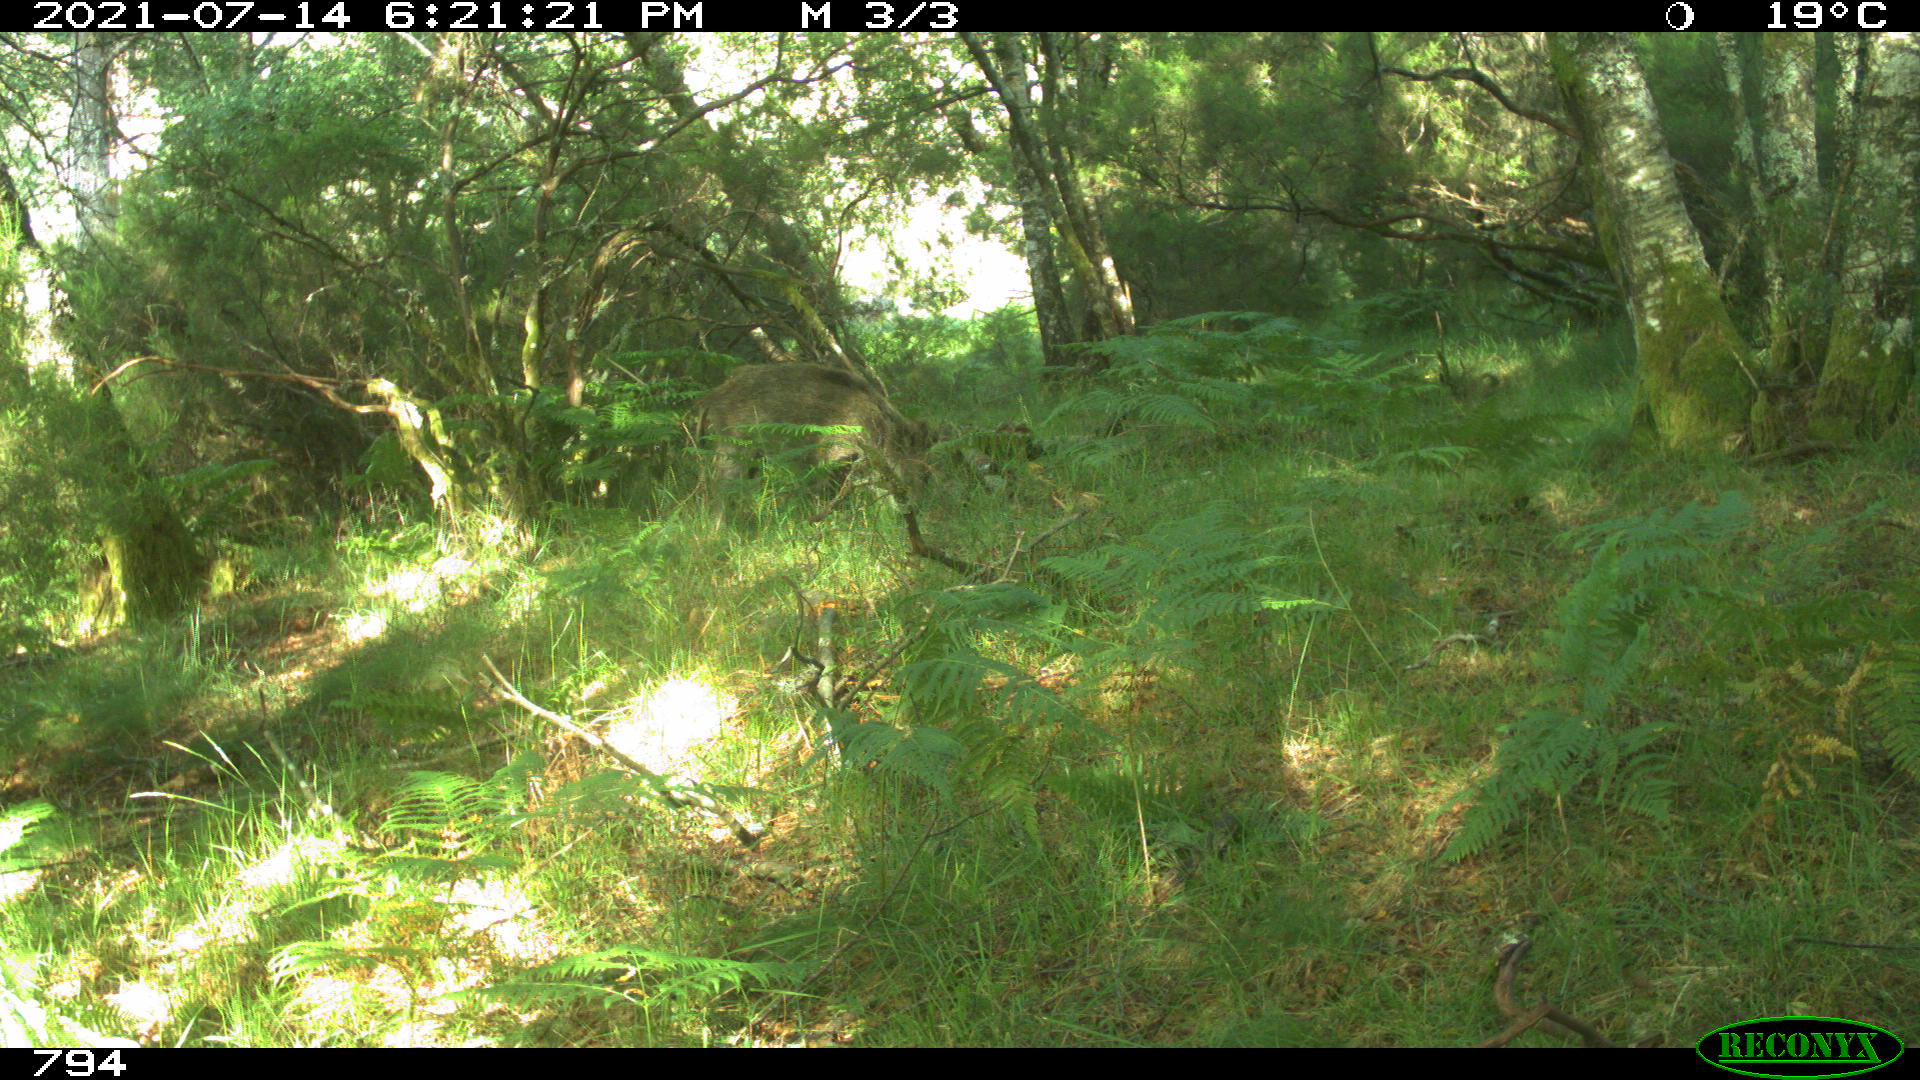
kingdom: Animalia
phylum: Chordata
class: Mammalia
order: Artiodactyla
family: Suidae
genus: Sus
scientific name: Sus scrofa
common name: Wild boar
